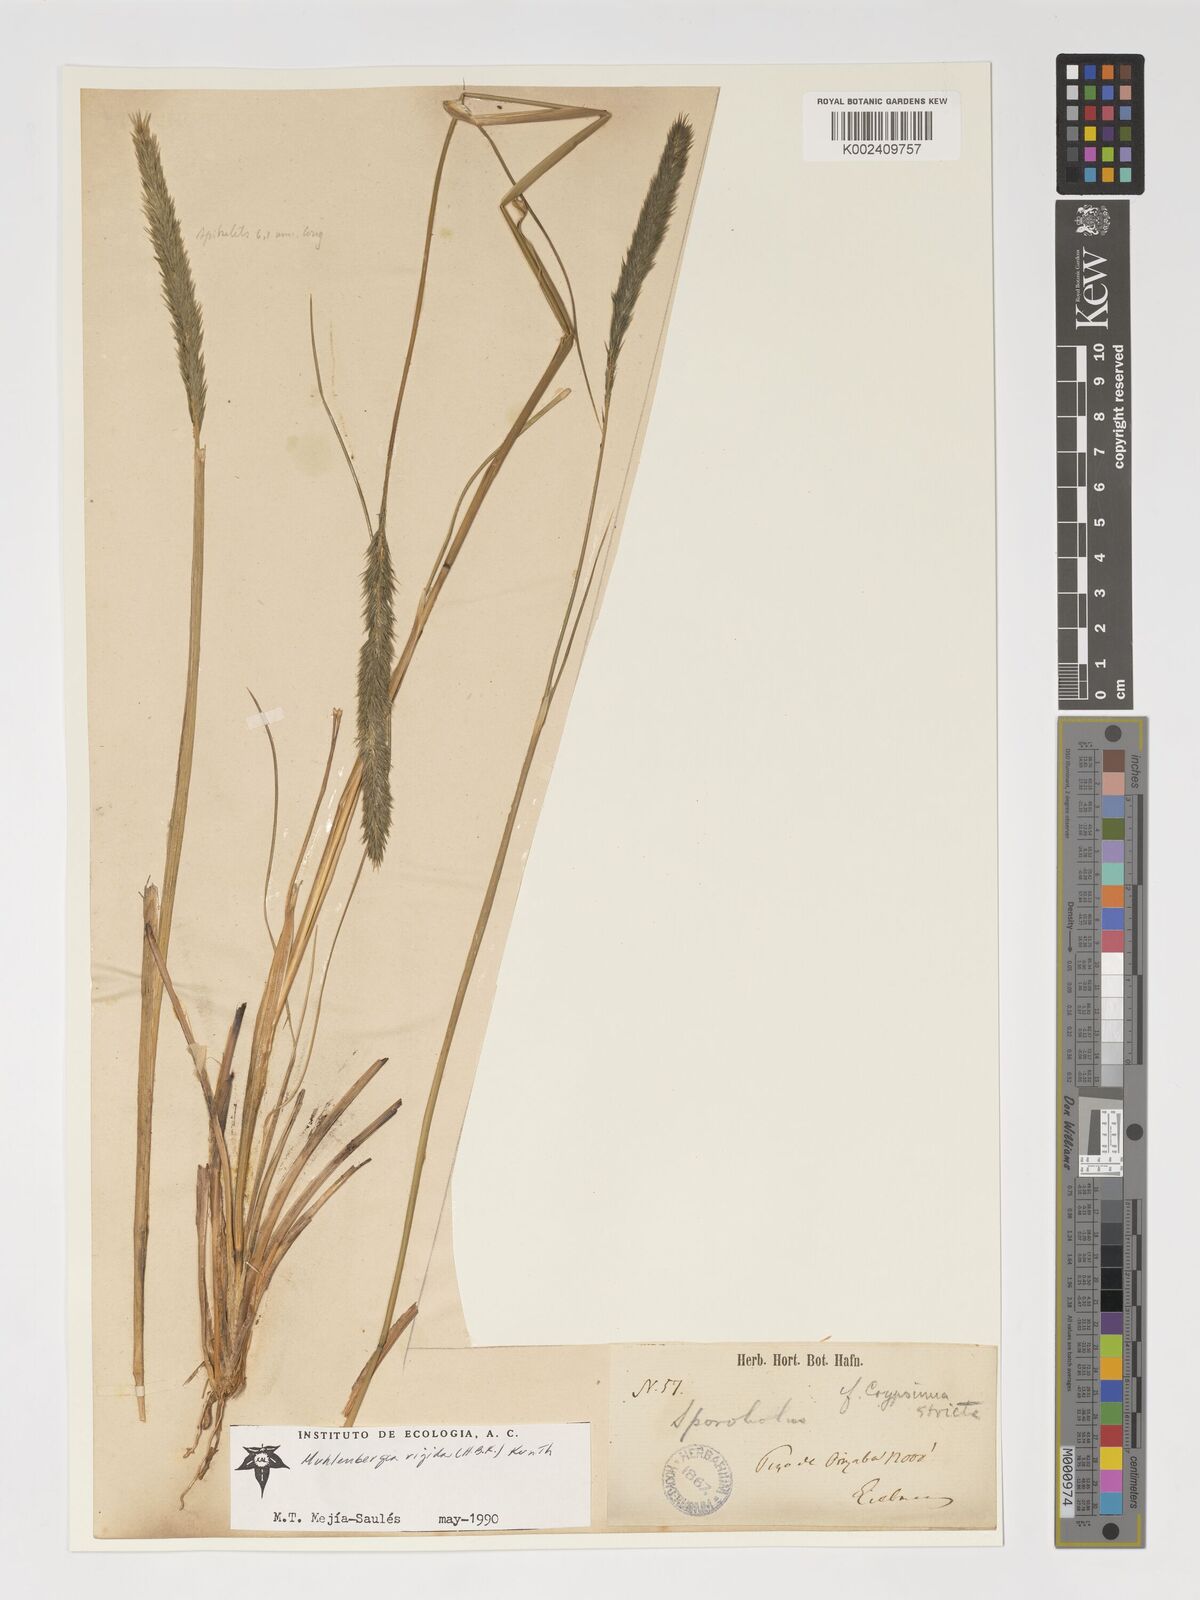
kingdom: Plantae
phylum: Tracheophyta
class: Liliopsida
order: Poales
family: Poaceae
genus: Muhlenbergia
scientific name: Muhlenbergia rigida
